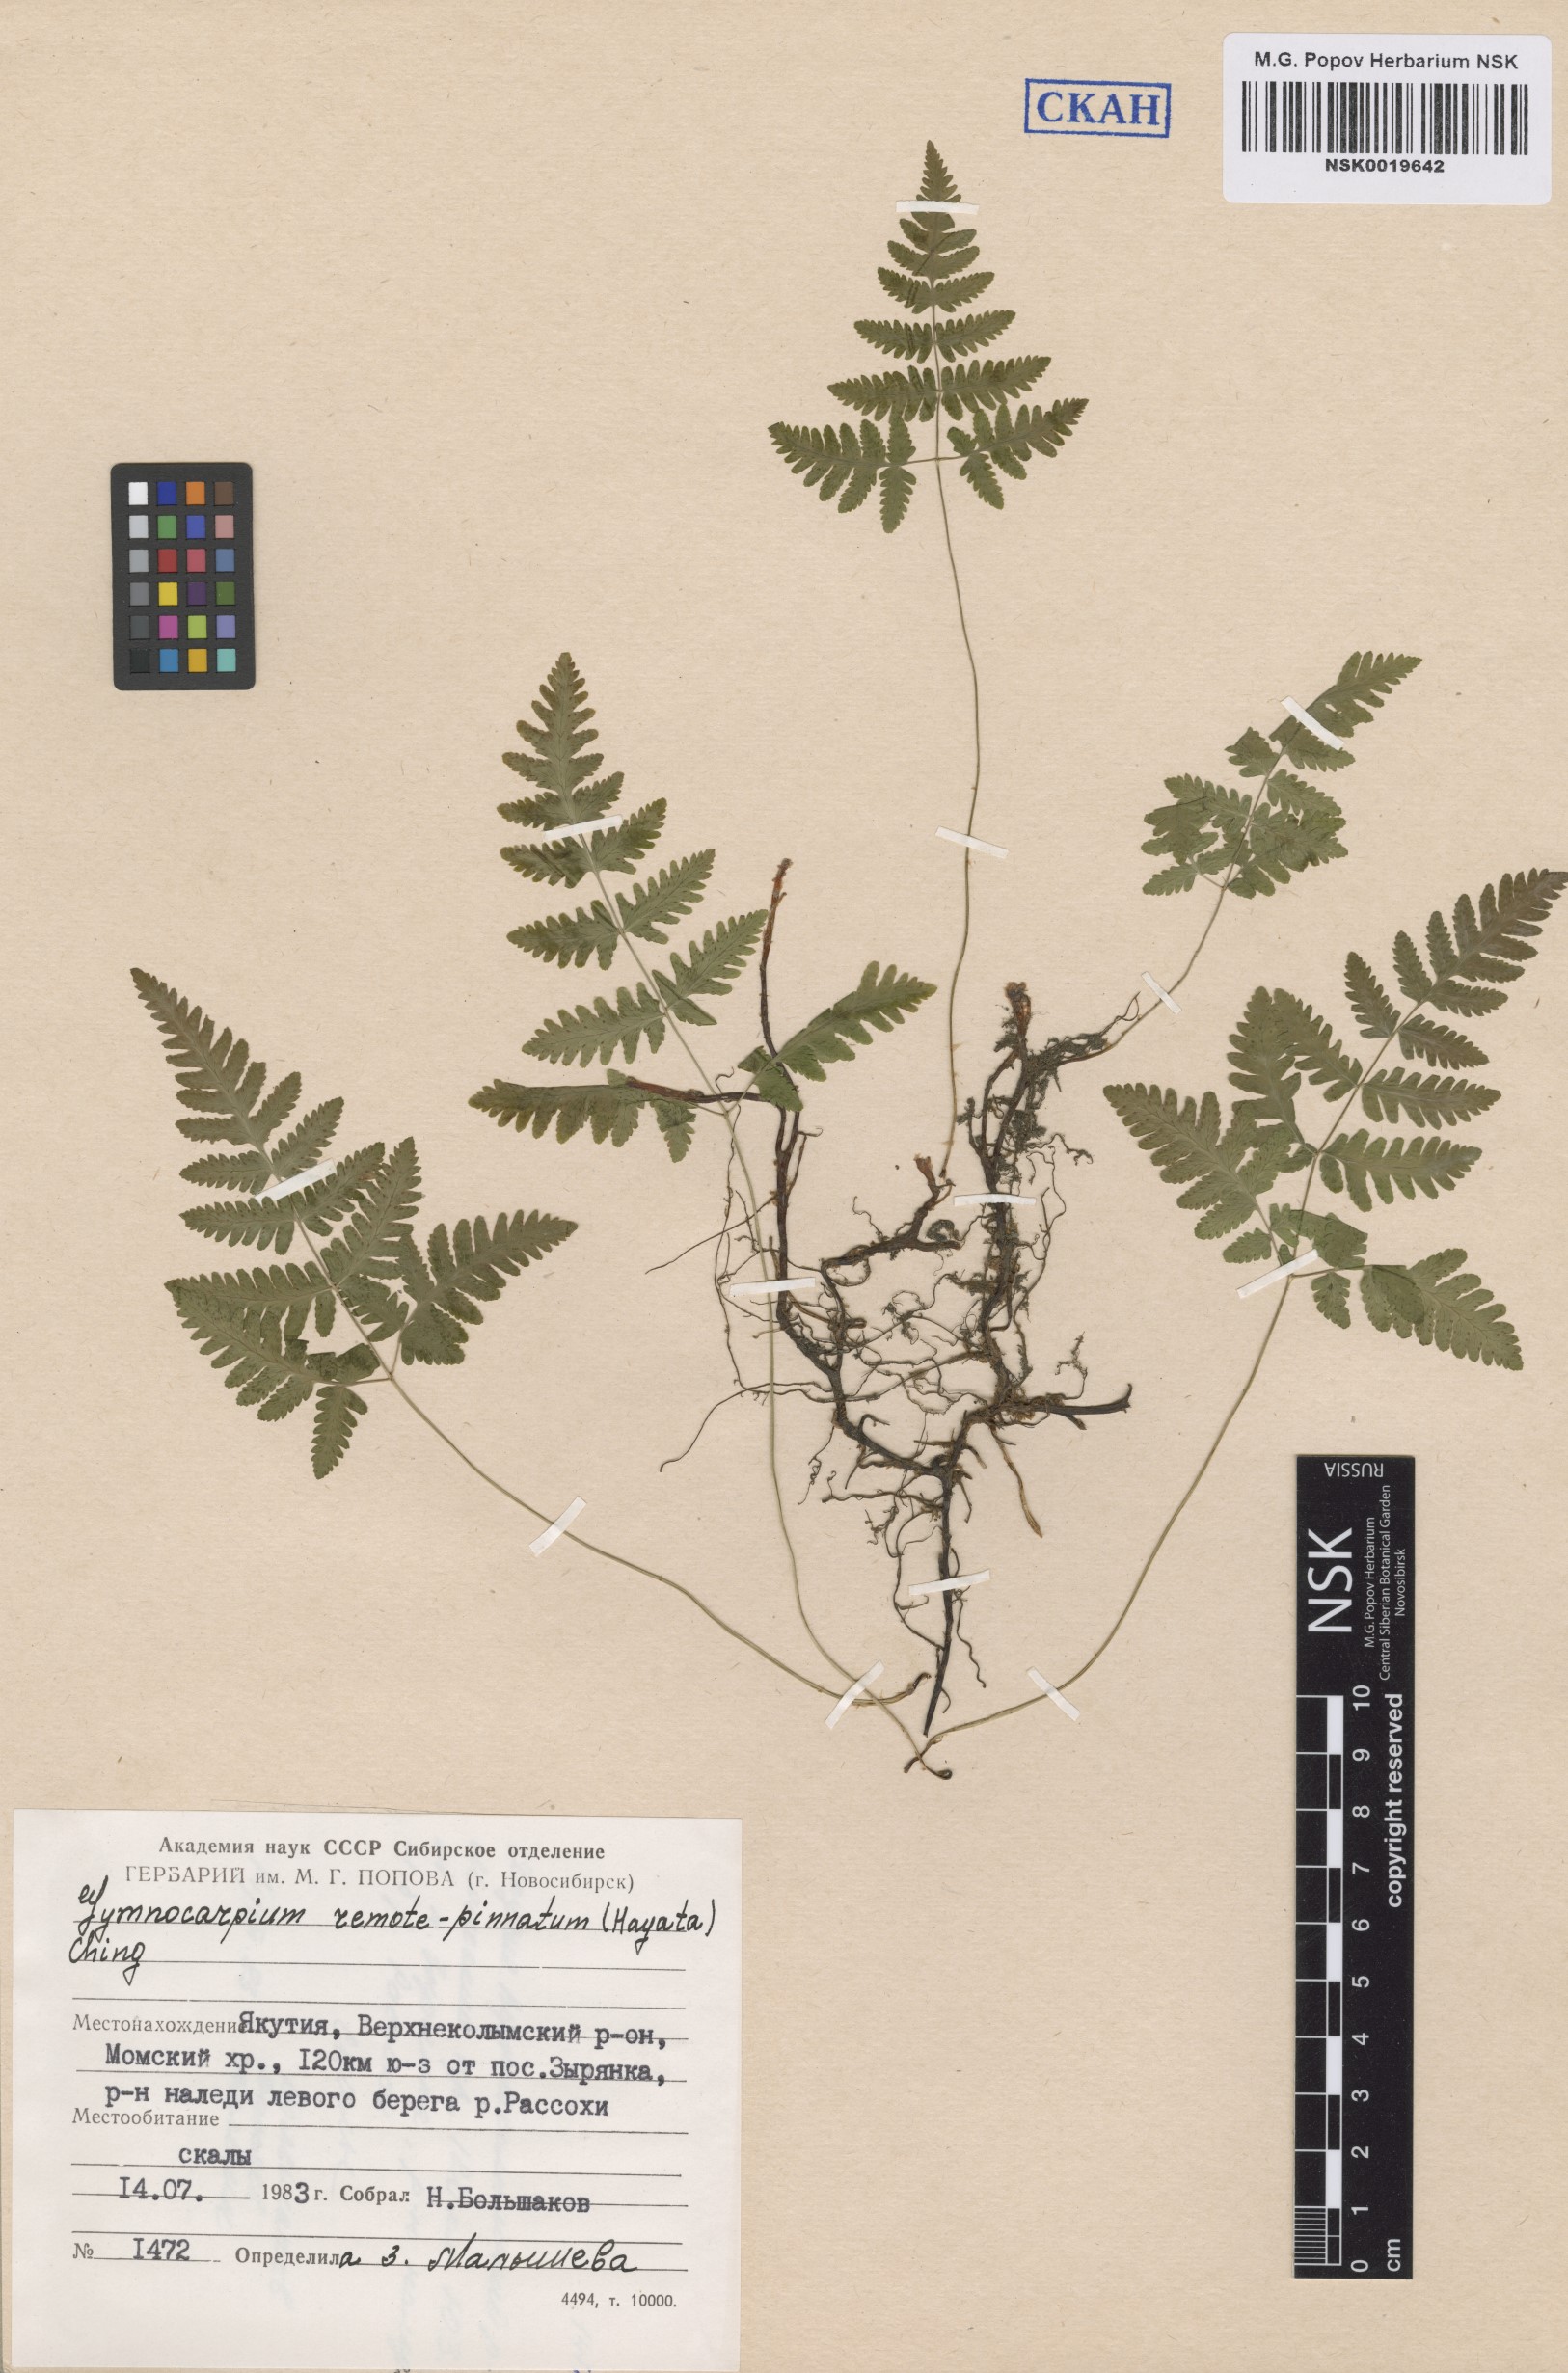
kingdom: Plantae
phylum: Tracheophyta
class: Polypodiopsida
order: Polypodiales
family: Cystopteridaceae
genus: Gymnocarpium
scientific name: Gymnocarpium continentale
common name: Asian oak fern
